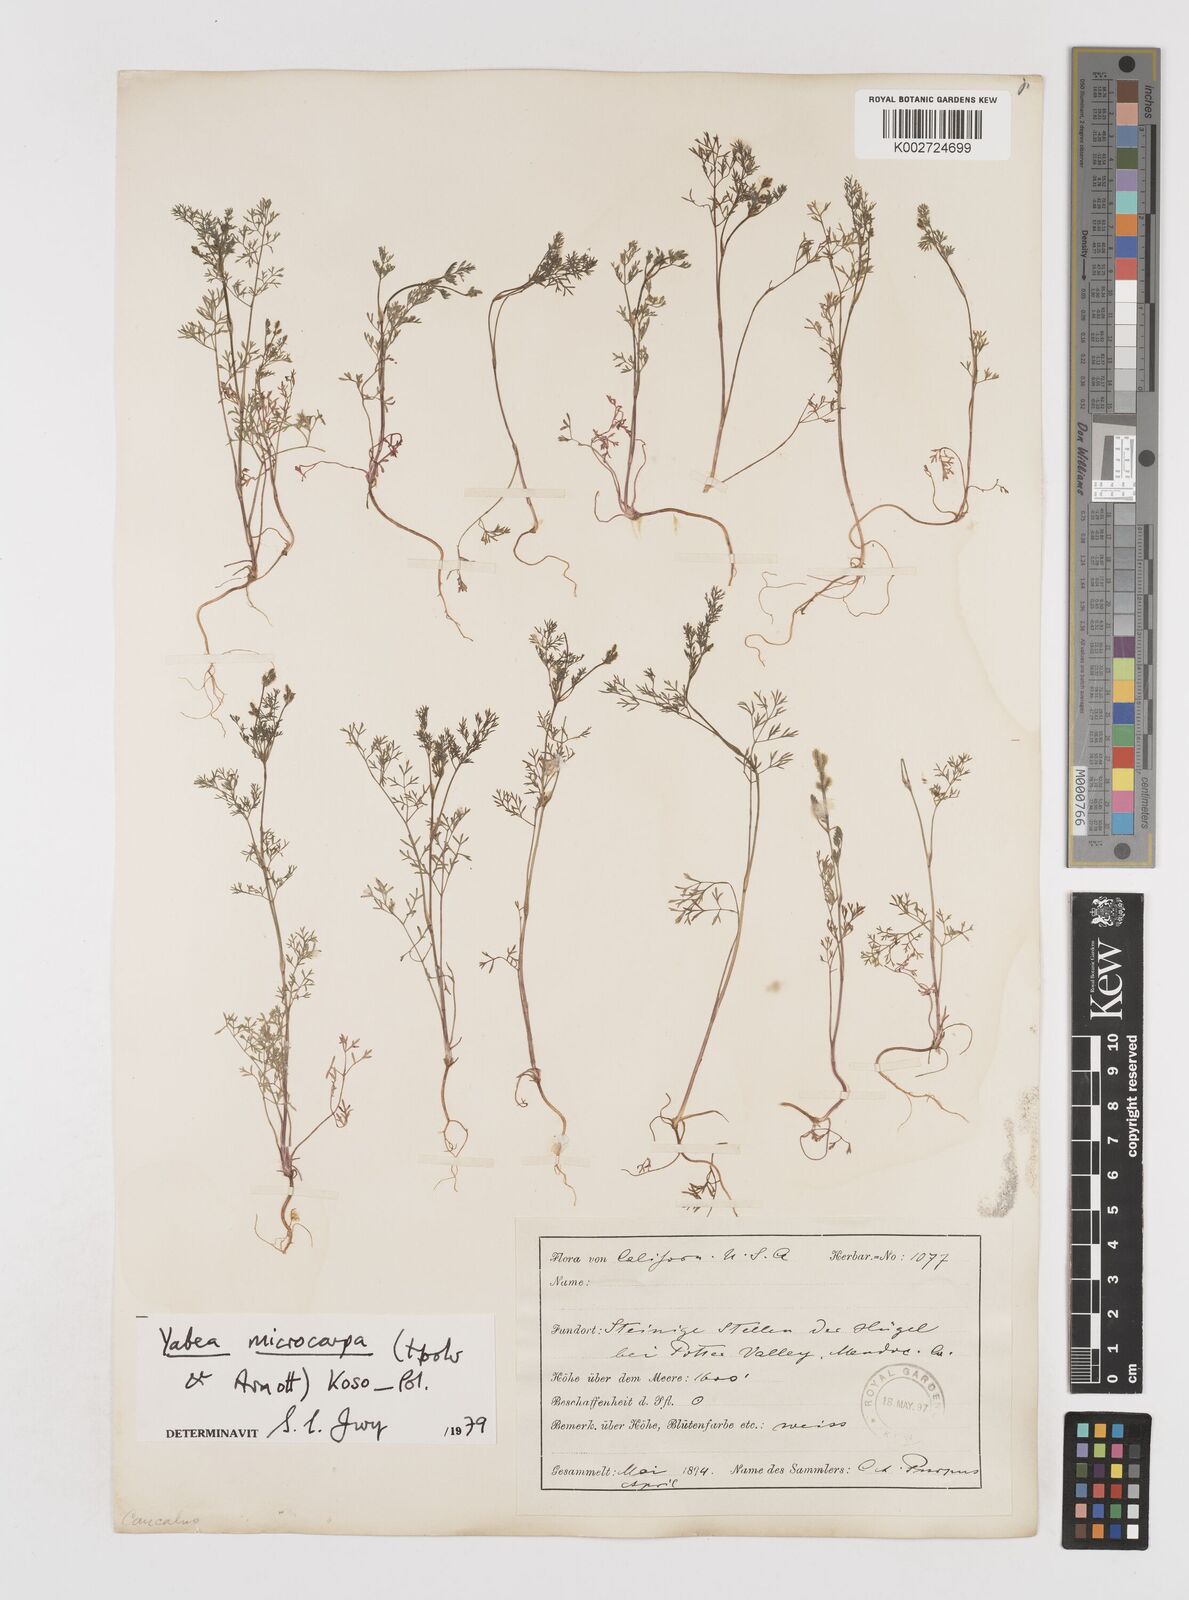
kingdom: Plantae
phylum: Tracheophyta
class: Magnoliopsida
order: Apiales
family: Apiaceae
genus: Yabea
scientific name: Yabea microcarpa
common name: False carrot
